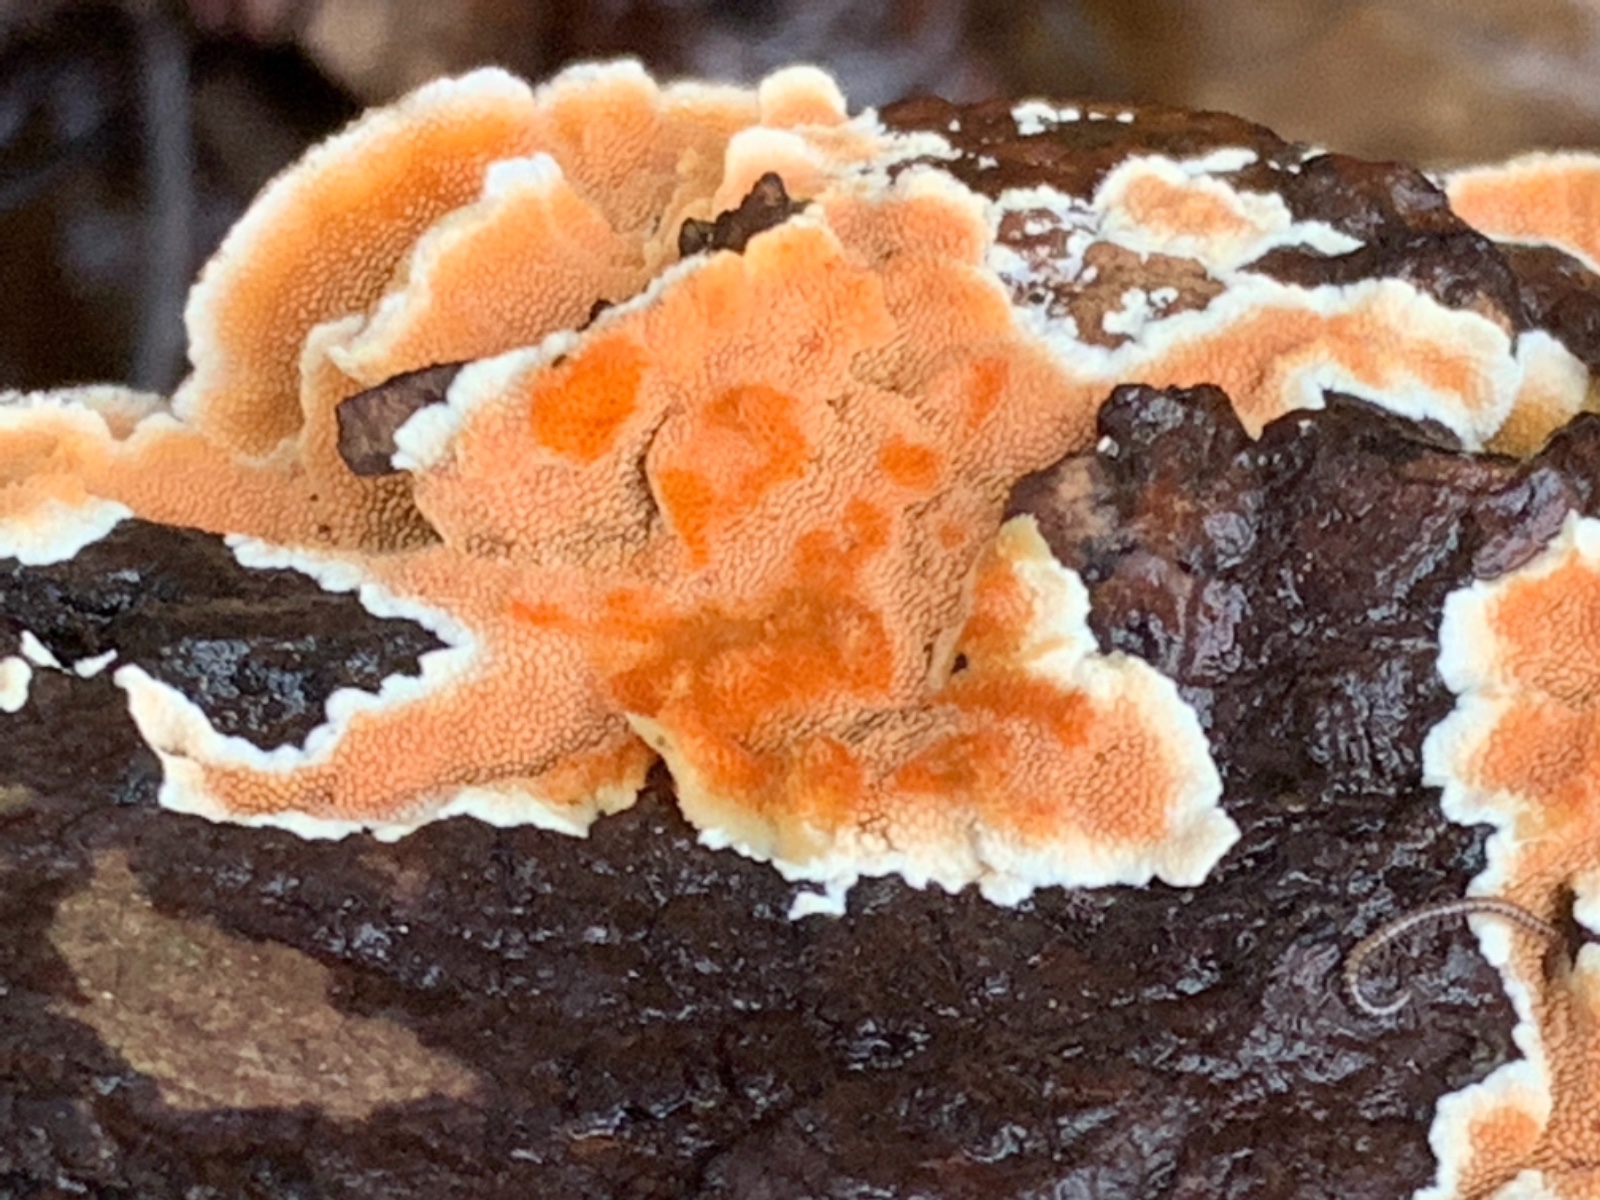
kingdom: Fungi
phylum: Basidiomycota
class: Agaricomycetes
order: Polyporales
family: Steccherinaceae
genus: Steccherinum
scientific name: Steccherinum ochraceum
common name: almindelig skønpig
